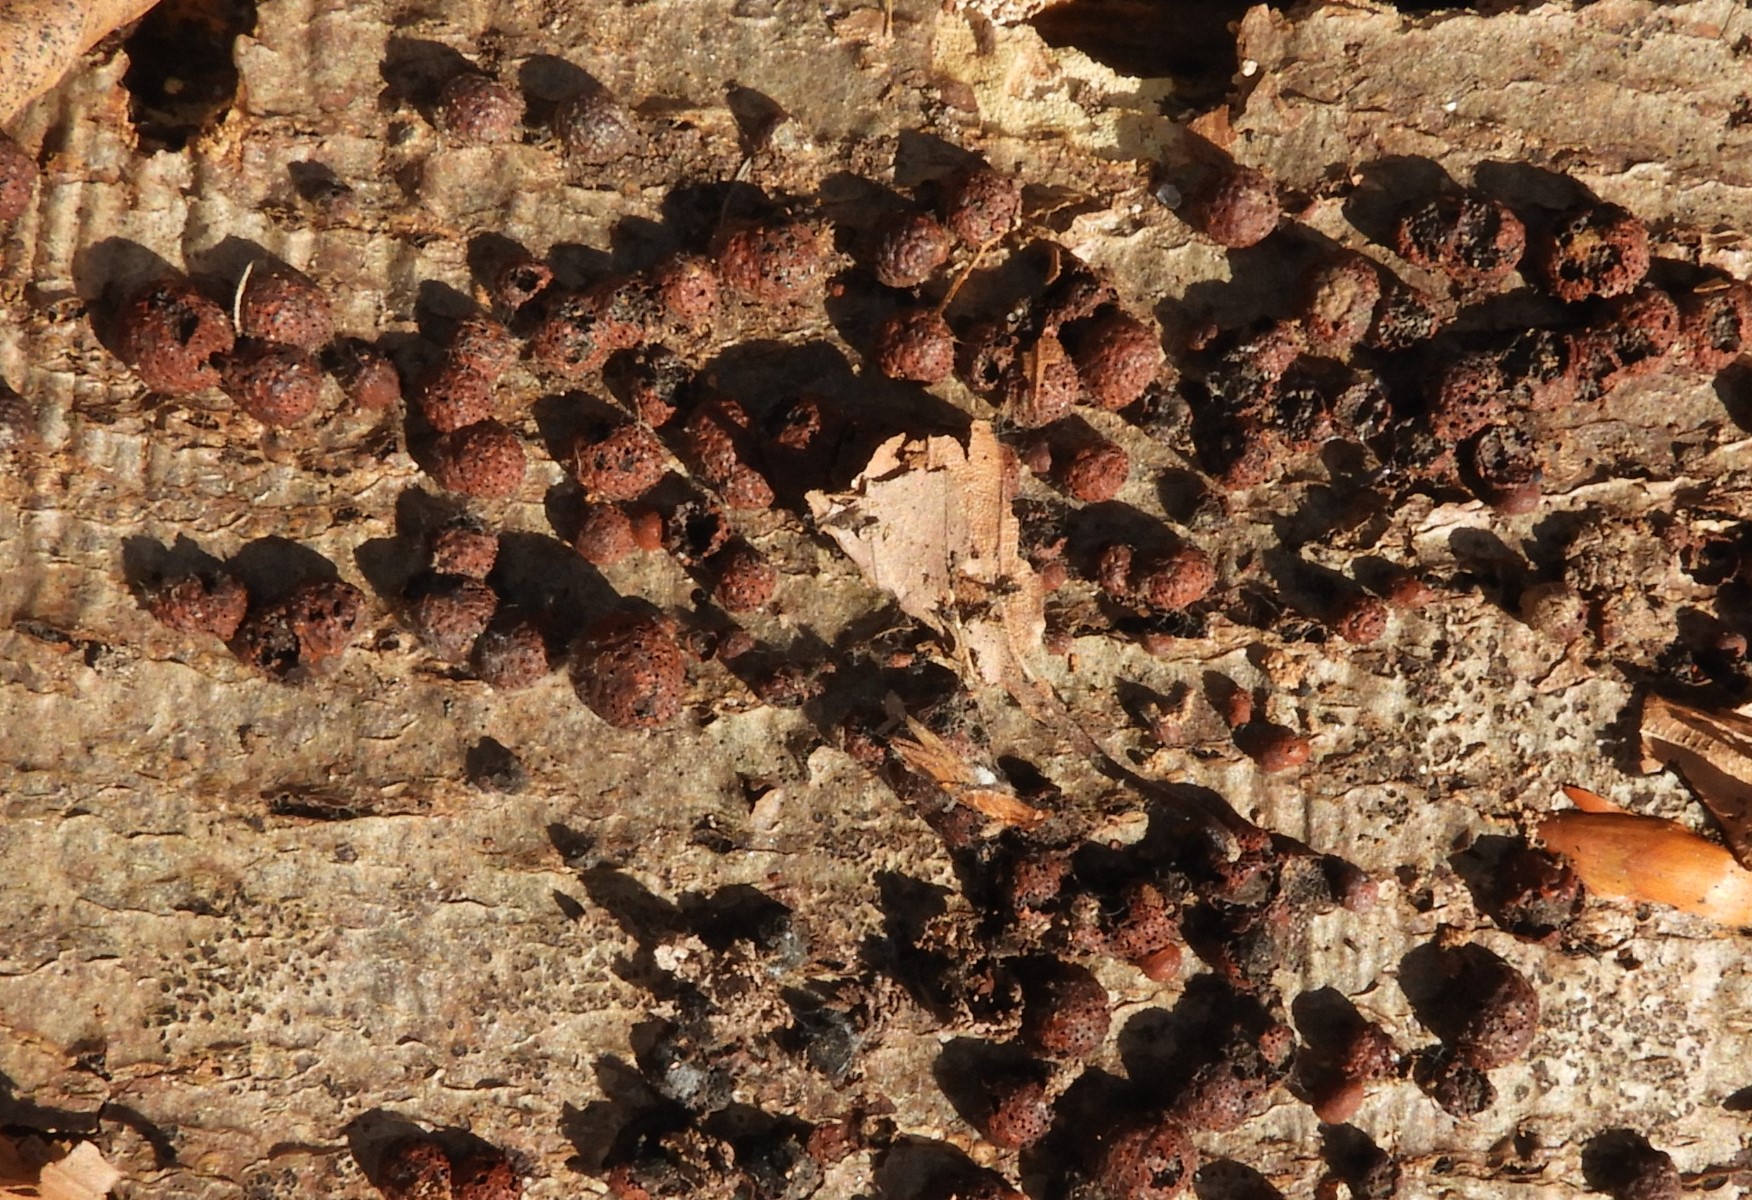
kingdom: Fungi
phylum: Ascomycota
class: Sordariomycetes
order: Xylariales
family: Hypoxylaceae
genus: Hypoxylon
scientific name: Hypoxylon fragiforme
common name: kuljordbær
